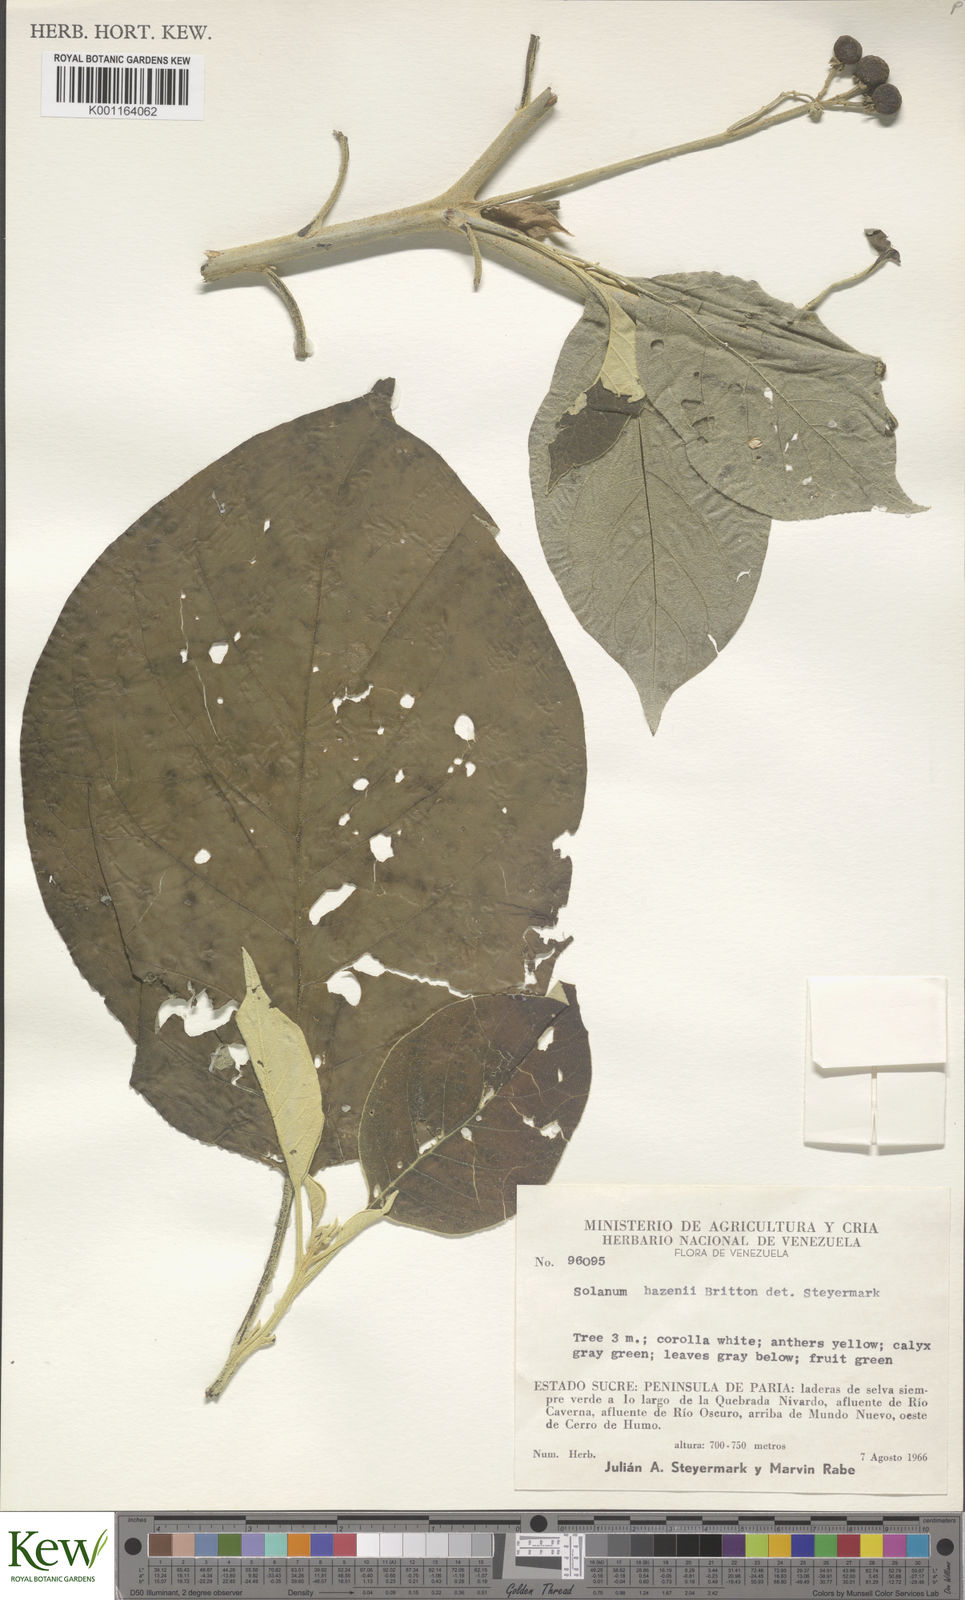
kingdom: Plantae
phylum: Tracheophyta
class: Magnoliopsida
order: Solanales
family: Solanaceae
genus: Solanum
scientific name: Solanum hazenii
